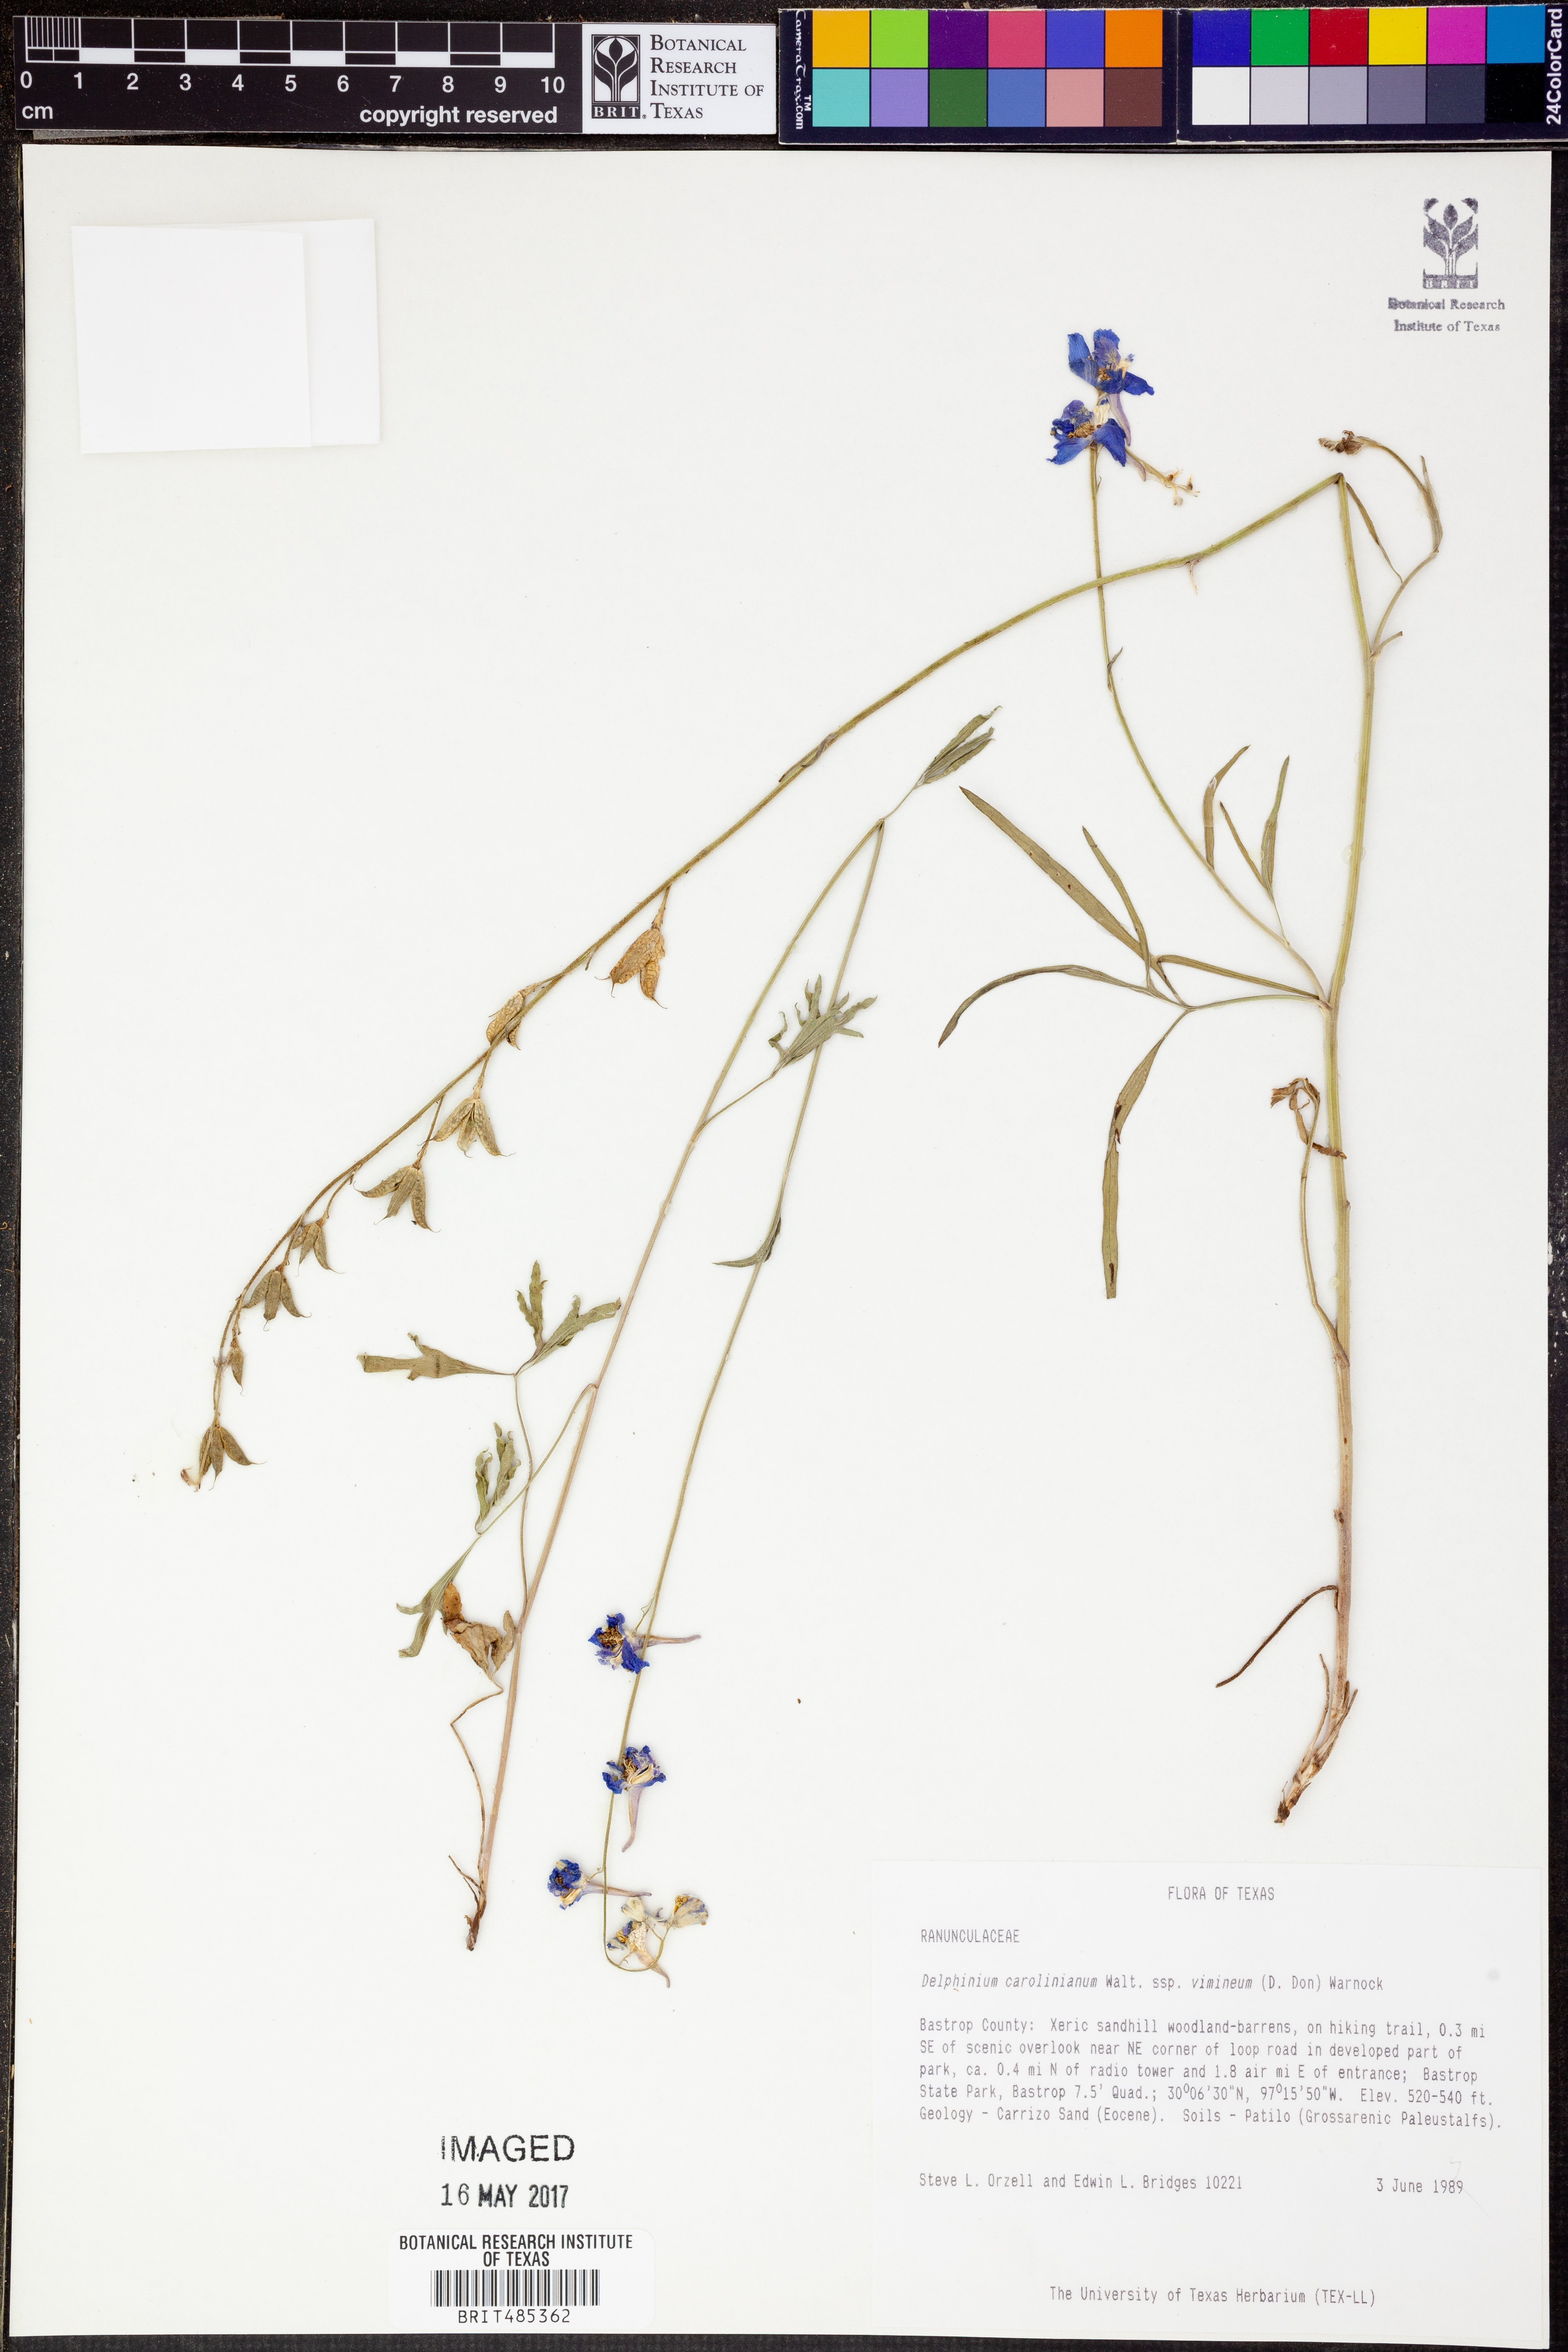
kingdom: Plantae
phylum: Tracheophyta
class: Magnoliopsida
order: Ranunculales
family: Ranunculaceae
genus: Delphinium
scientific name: Delphinium carolinianum
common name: Carolina larkspur
